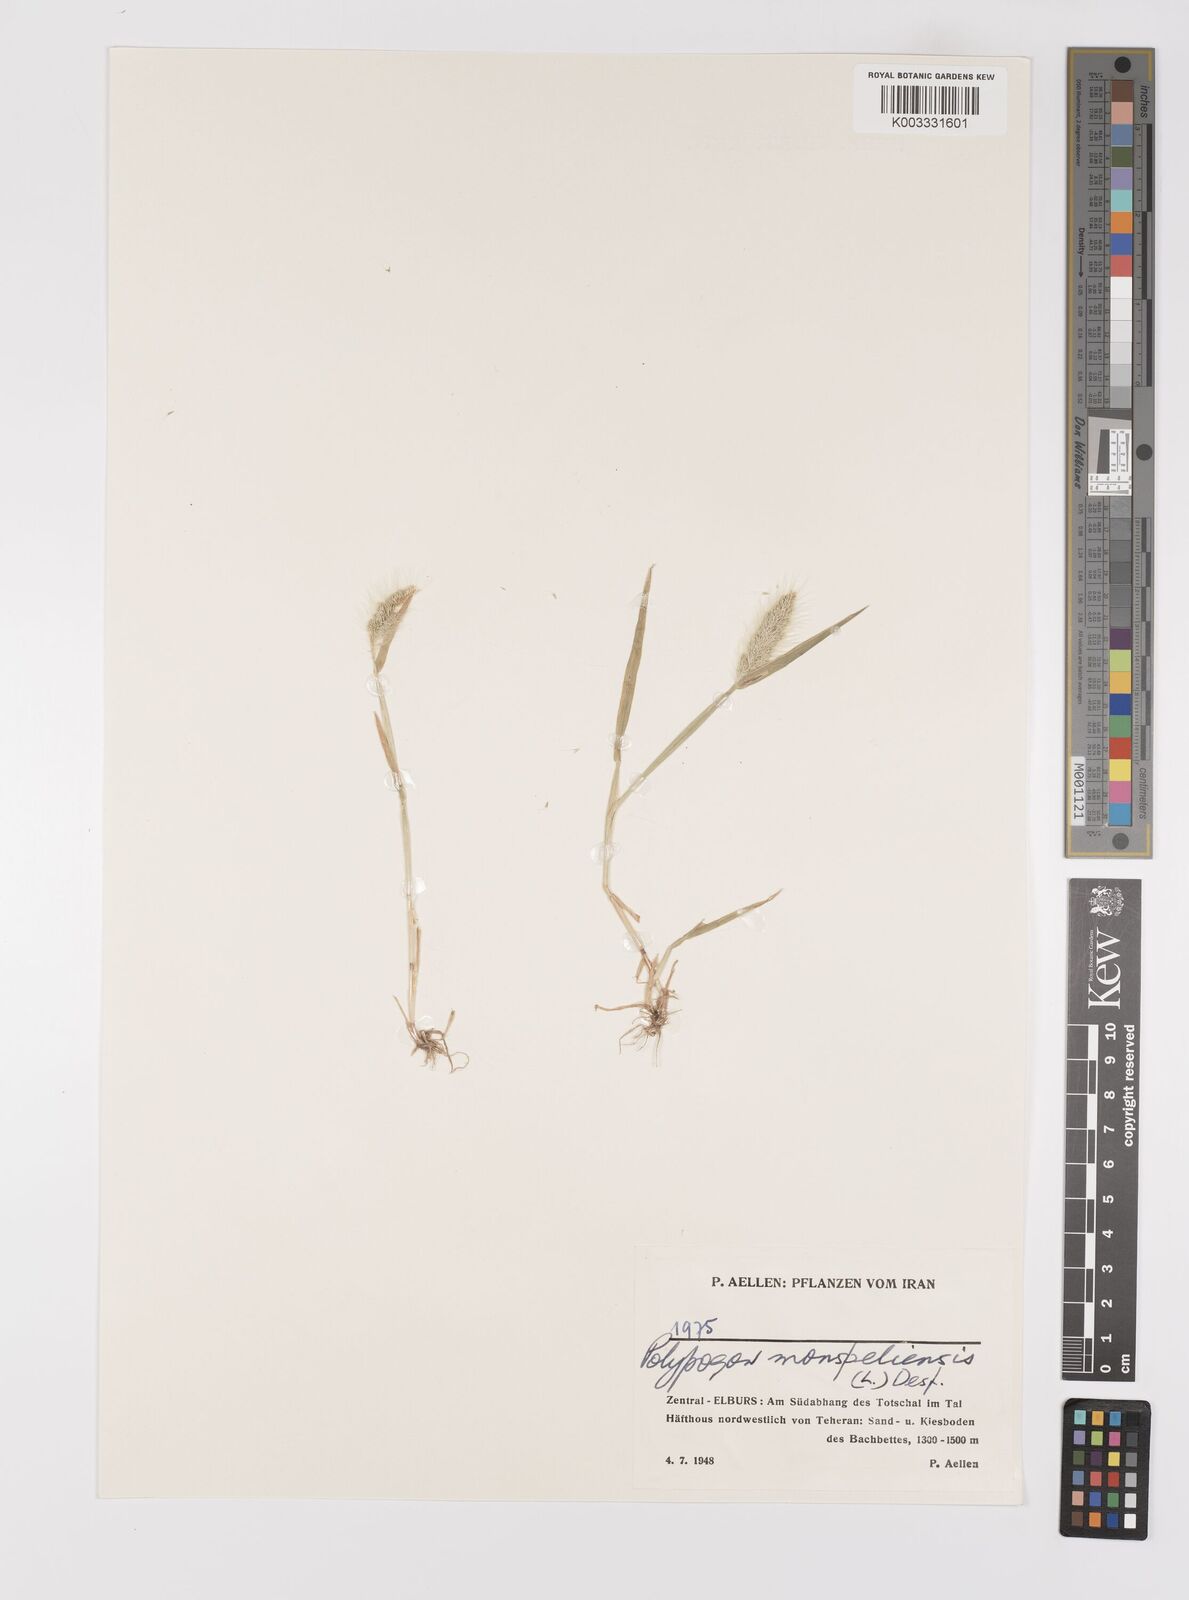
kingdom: Plantae
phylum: Tracheophyta
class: Liliopsida
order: Poales
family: Poaceae
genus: Polypogon
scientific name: Polypogon monspeliensis
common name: Annual rabbitsfoot grass
